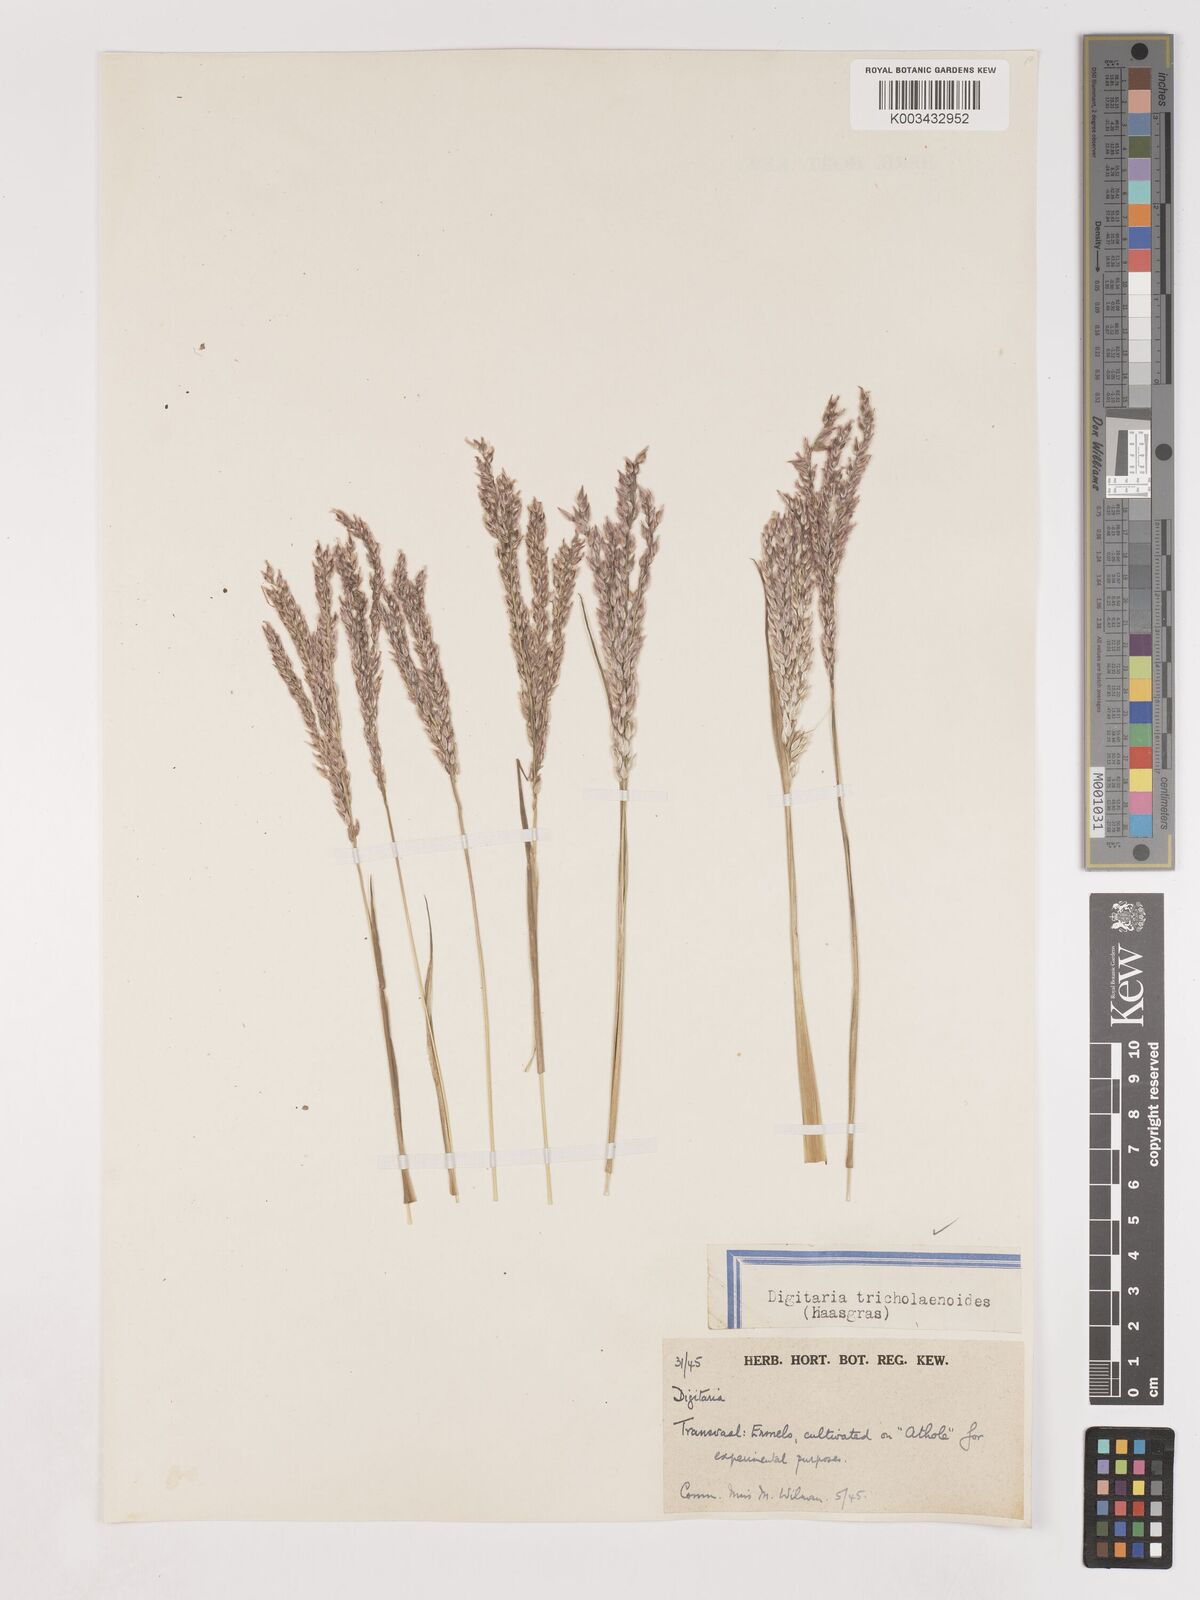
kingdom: Plantae
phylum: Tracheophyta
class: Liliopsida
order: Poales
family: Poaceae
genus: Digitaria
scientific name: Digitaria tricholaenoides
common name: Purple finger grass
